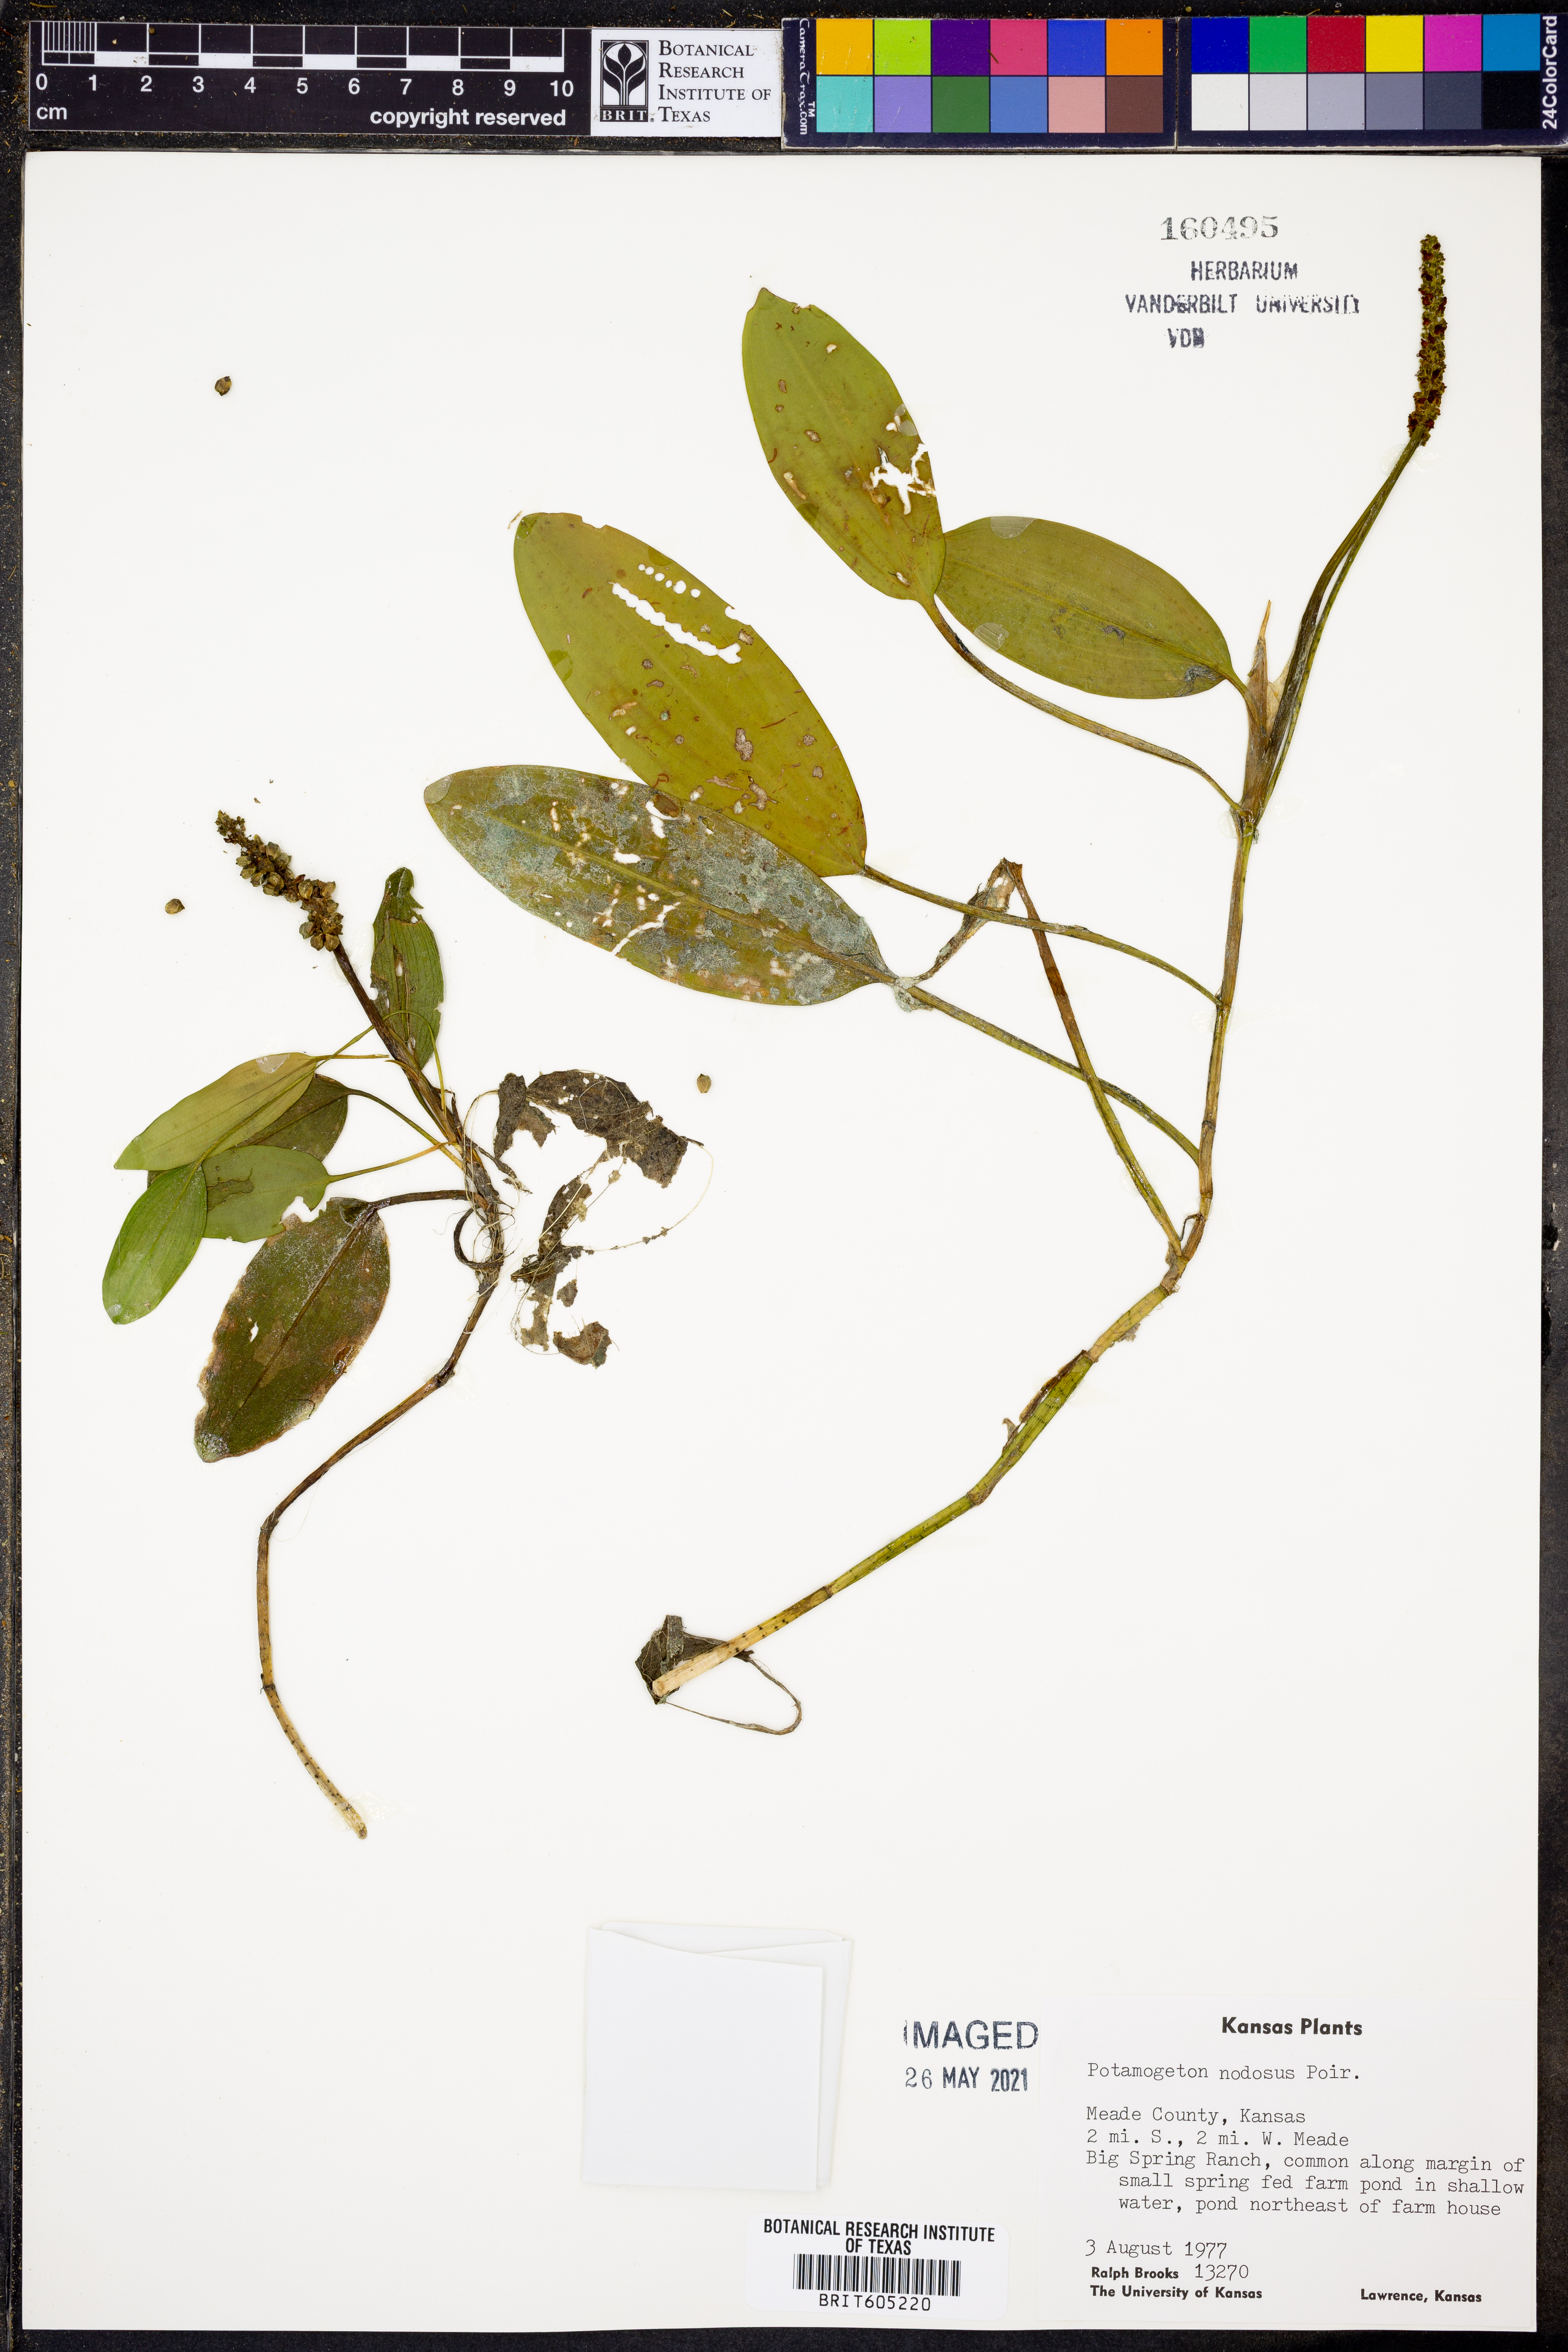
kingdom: Plantae
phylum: Tracheophyta
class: Liliopsida
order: Alismatales
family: Potamogetonaceae
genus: Potamogeton
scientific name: Potamogeton nodosus
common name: Loddon pondweed
